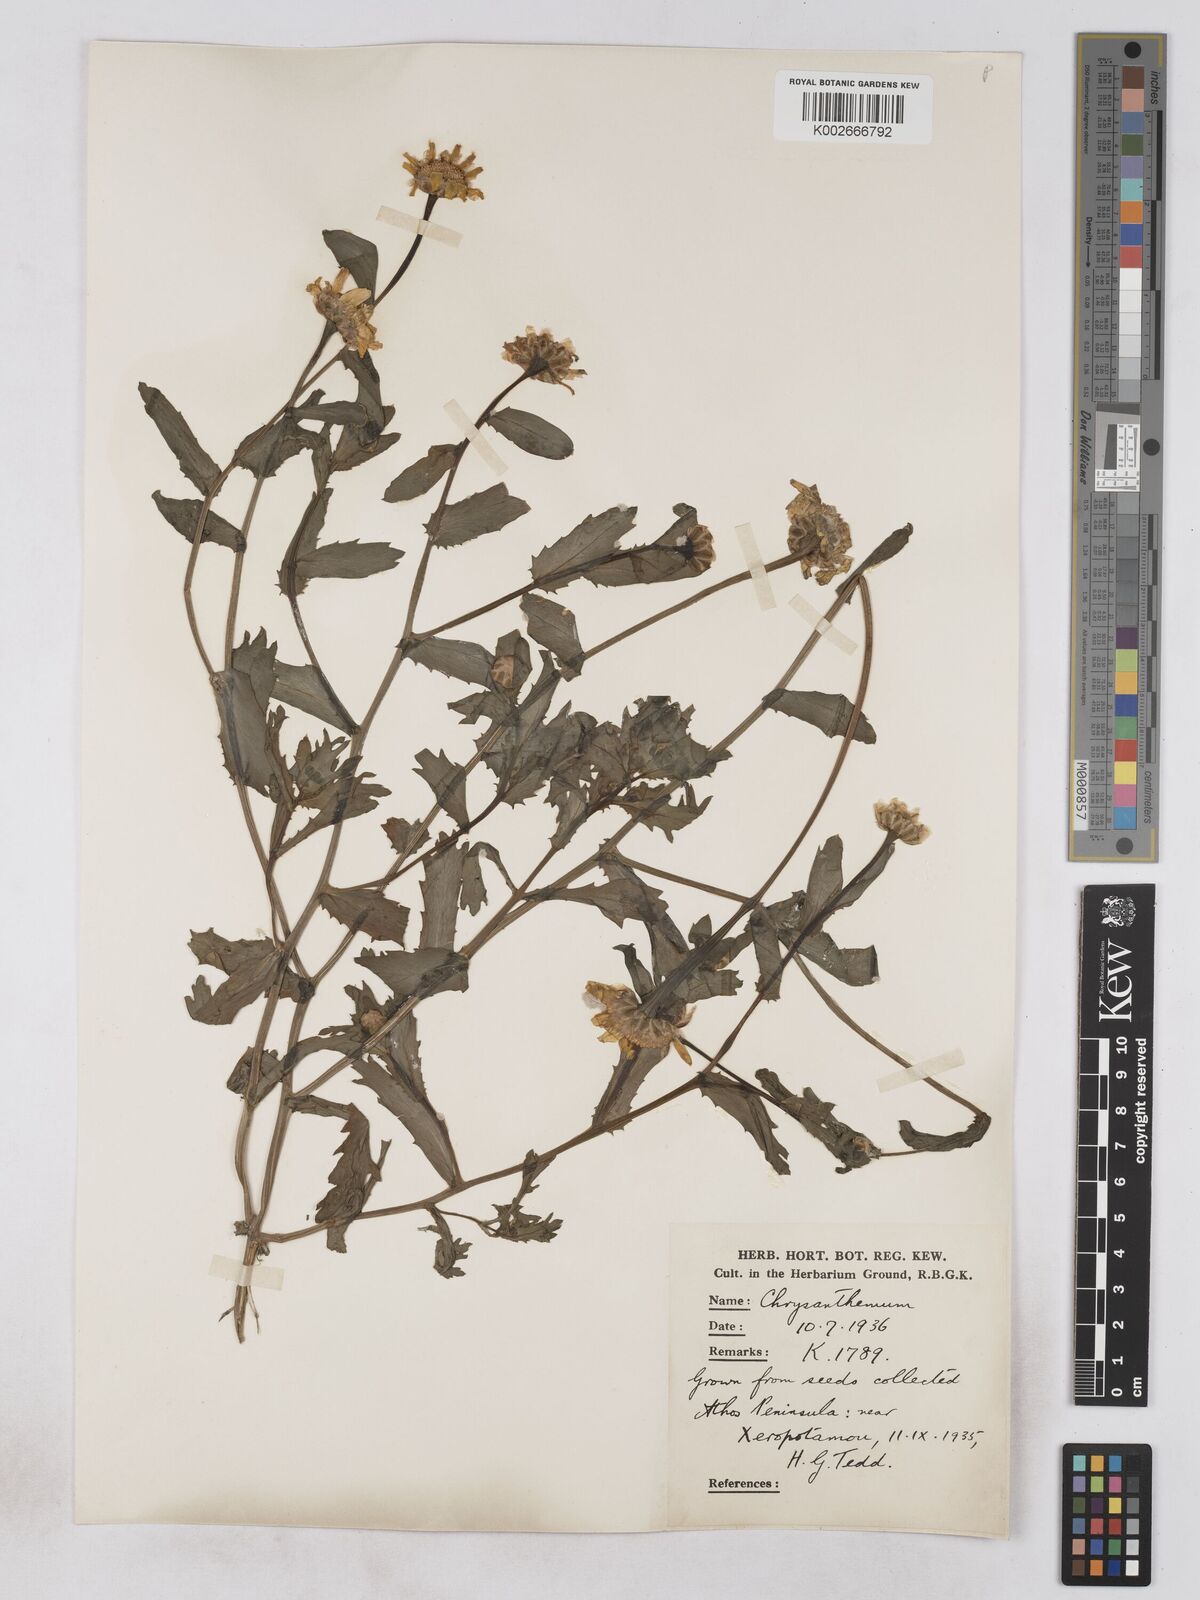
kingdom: Plantae
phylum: Tracheophyta
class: Magnoliopsida
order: Asterales
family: Asteraceae
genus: Glebionis
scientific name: Glebionis segetum
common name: Corndaisy
